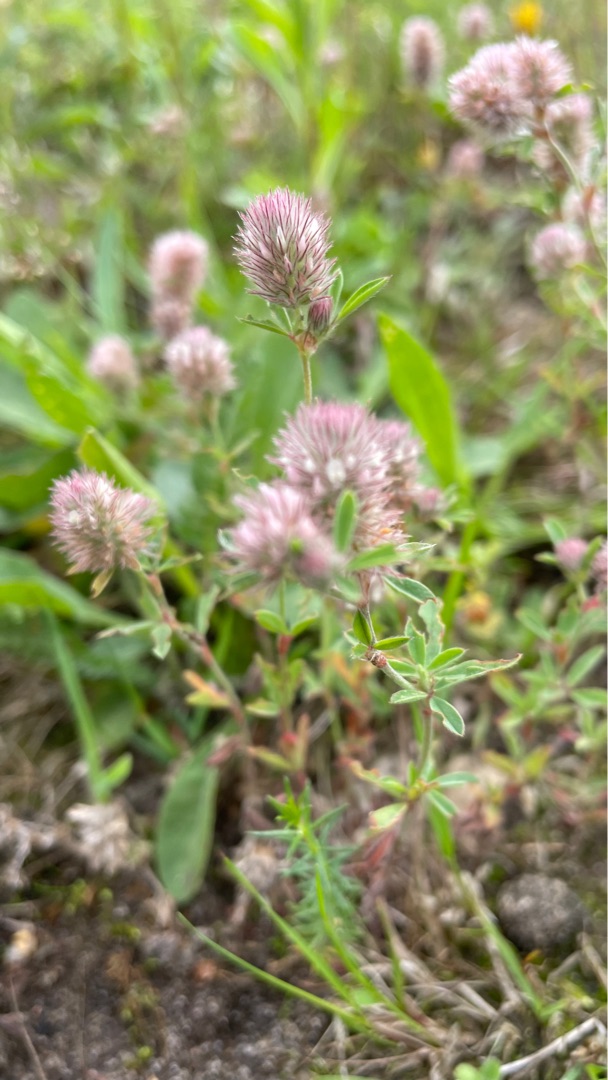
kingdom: Plantae
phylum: Tracheophyta
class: Magnoliopsida
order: Fabales
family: Fabaceae
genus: Trifolium
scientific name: Trifolium arvense
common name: Hare-kløver
